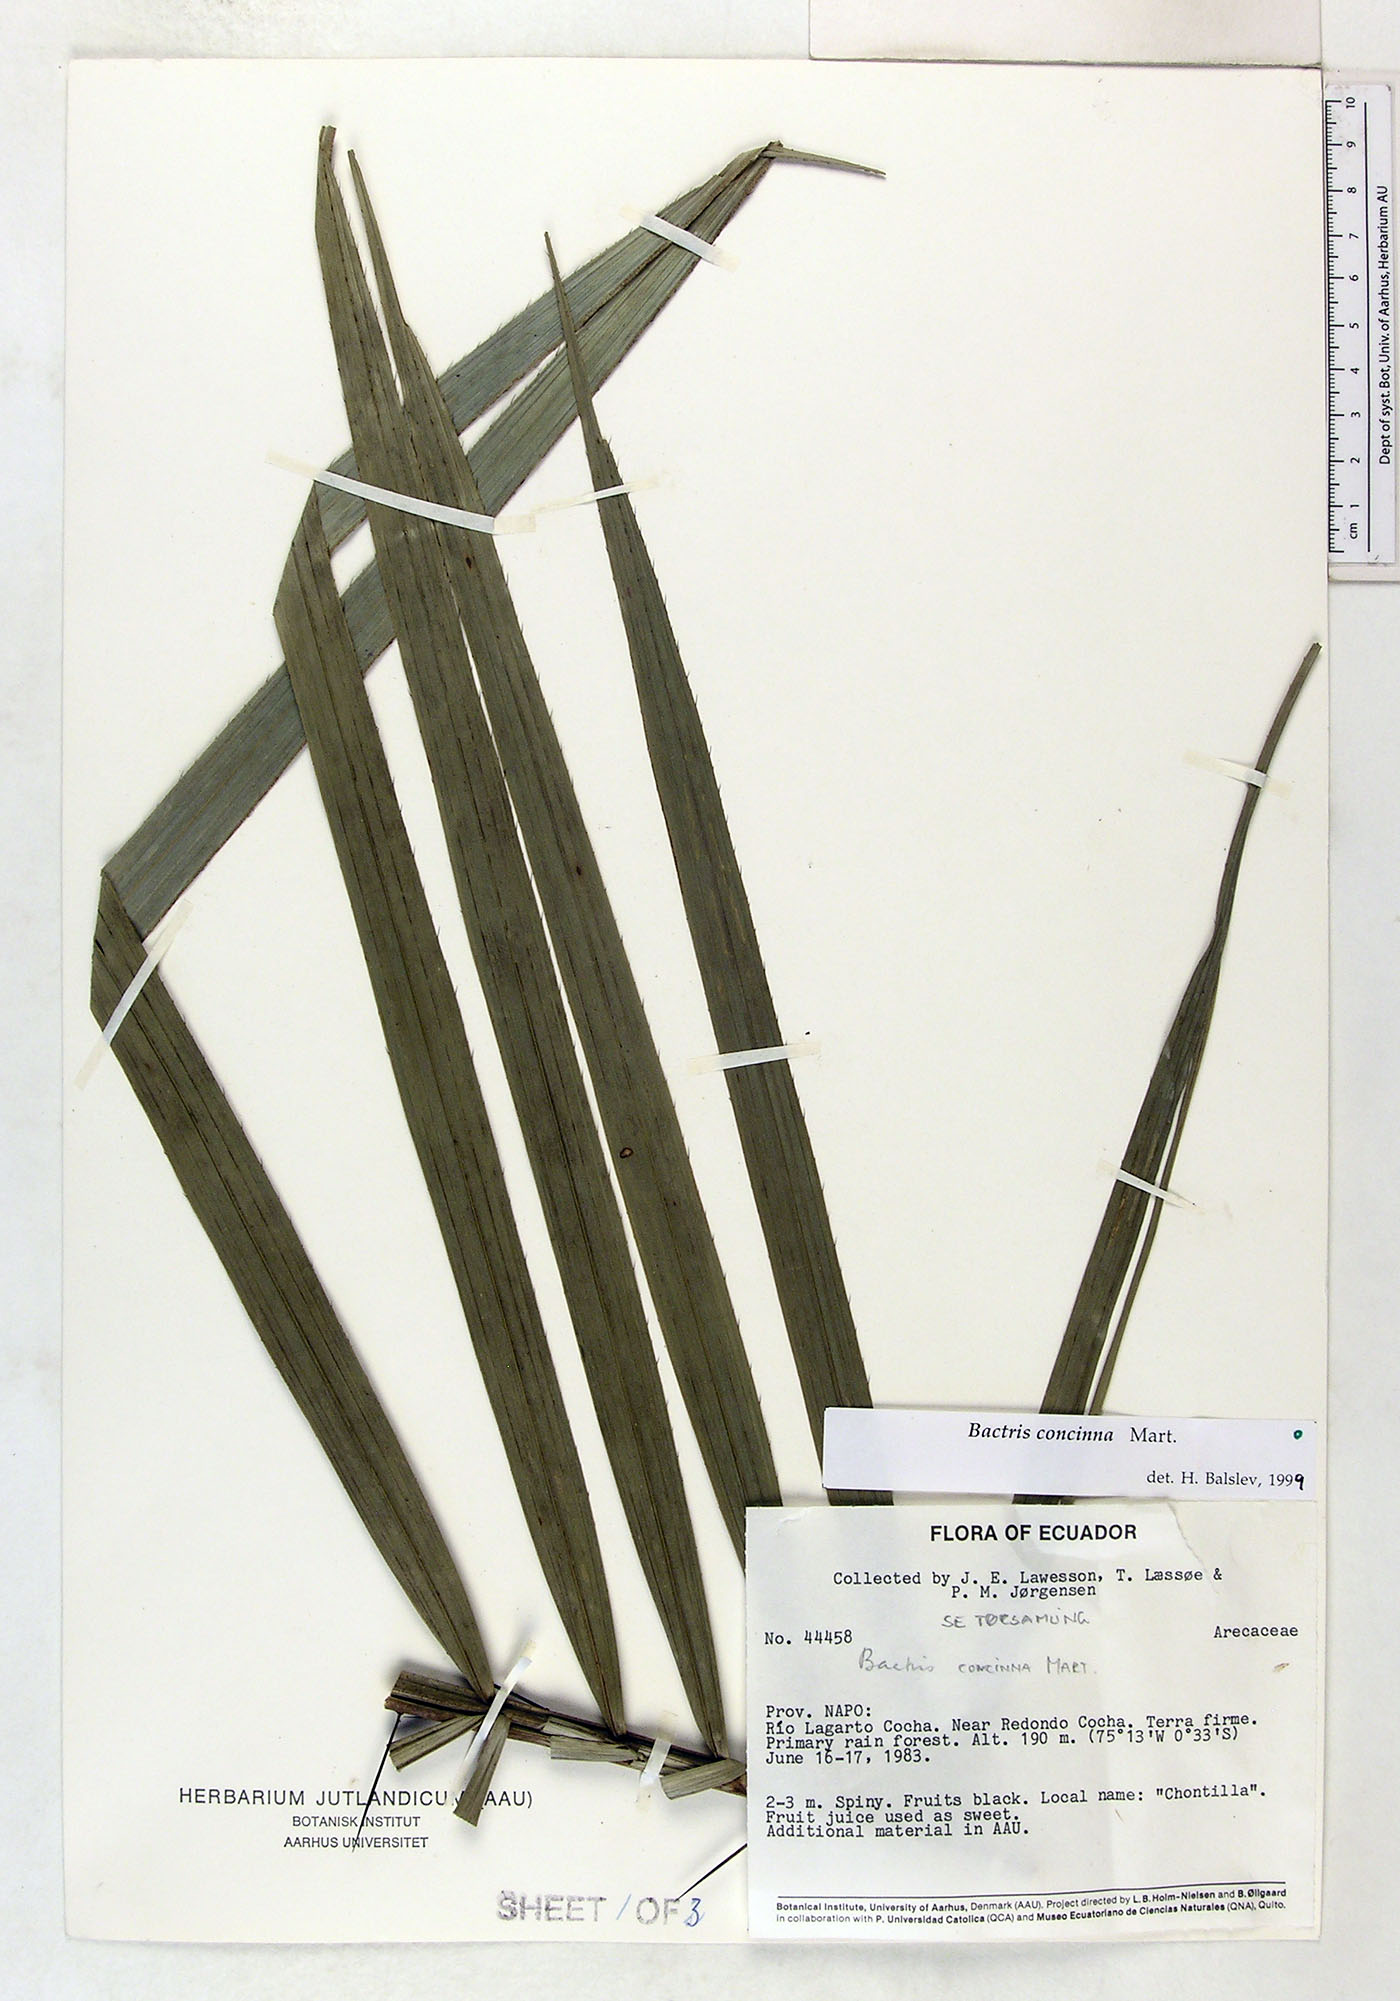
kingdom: Plantae
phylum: Tracheophyta
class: Liliopsida
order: Arecales
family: Arecaceae
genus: Bactris
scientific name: Bactris concinna
